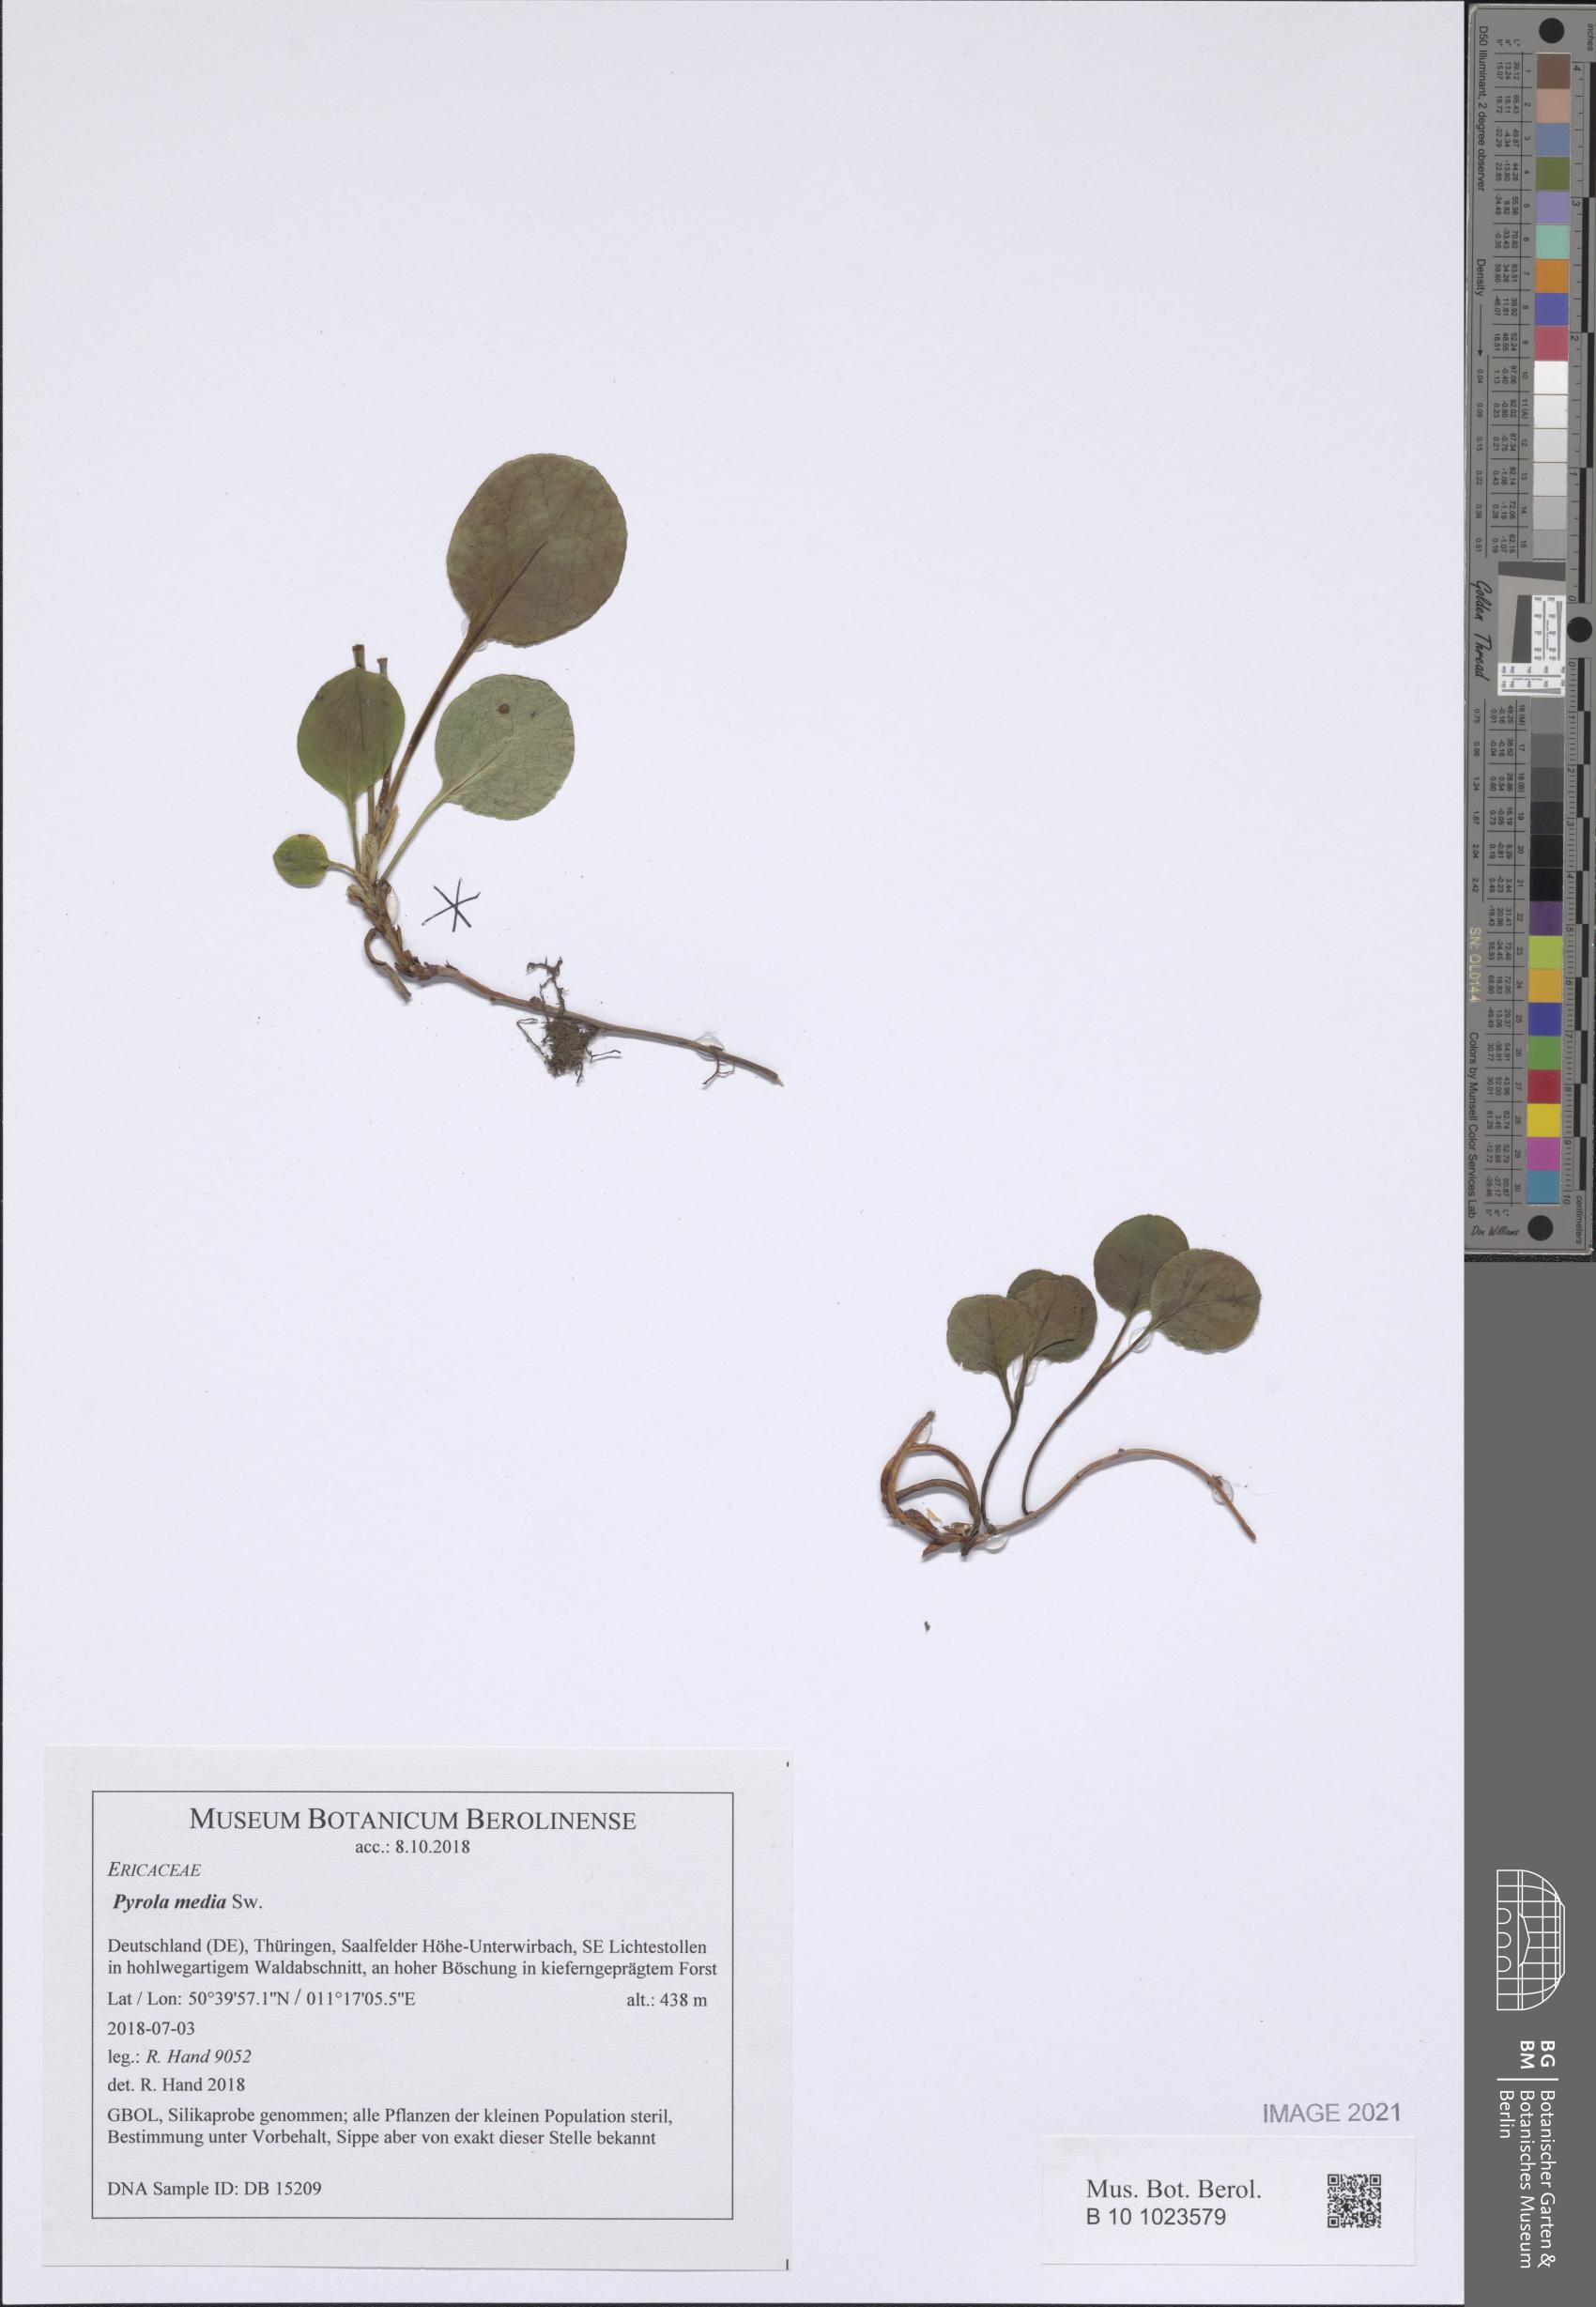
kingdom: Plantae
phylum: Tracheophyta
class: Magnoliopsida
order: Ericales
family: Ericaceae
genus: Pyrola
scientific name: Pyrola media
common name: Intermediate wintergreen
